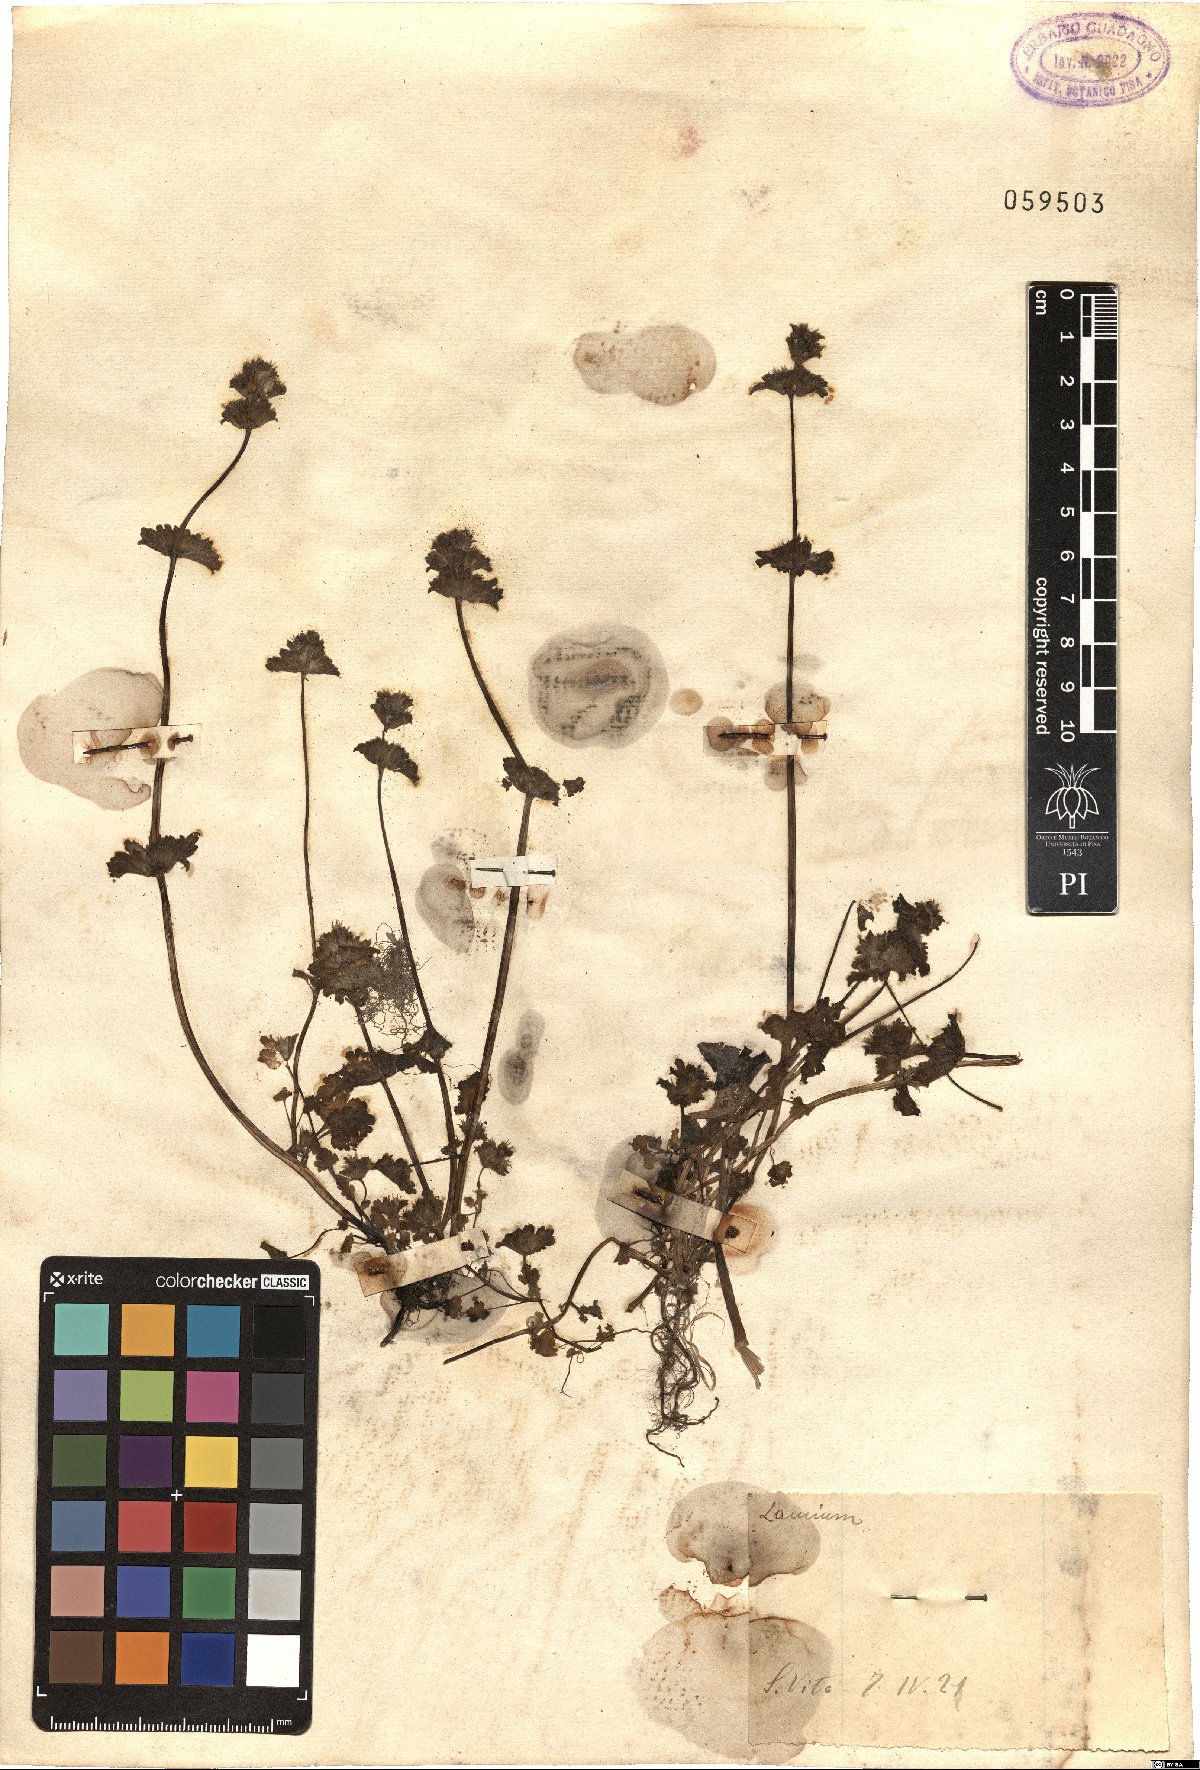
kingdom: Plantae
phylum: Tracheophyta
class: Magnoliopsida
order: Lamiales
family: Lamiaceae
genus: Lamium
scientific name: Lamium
